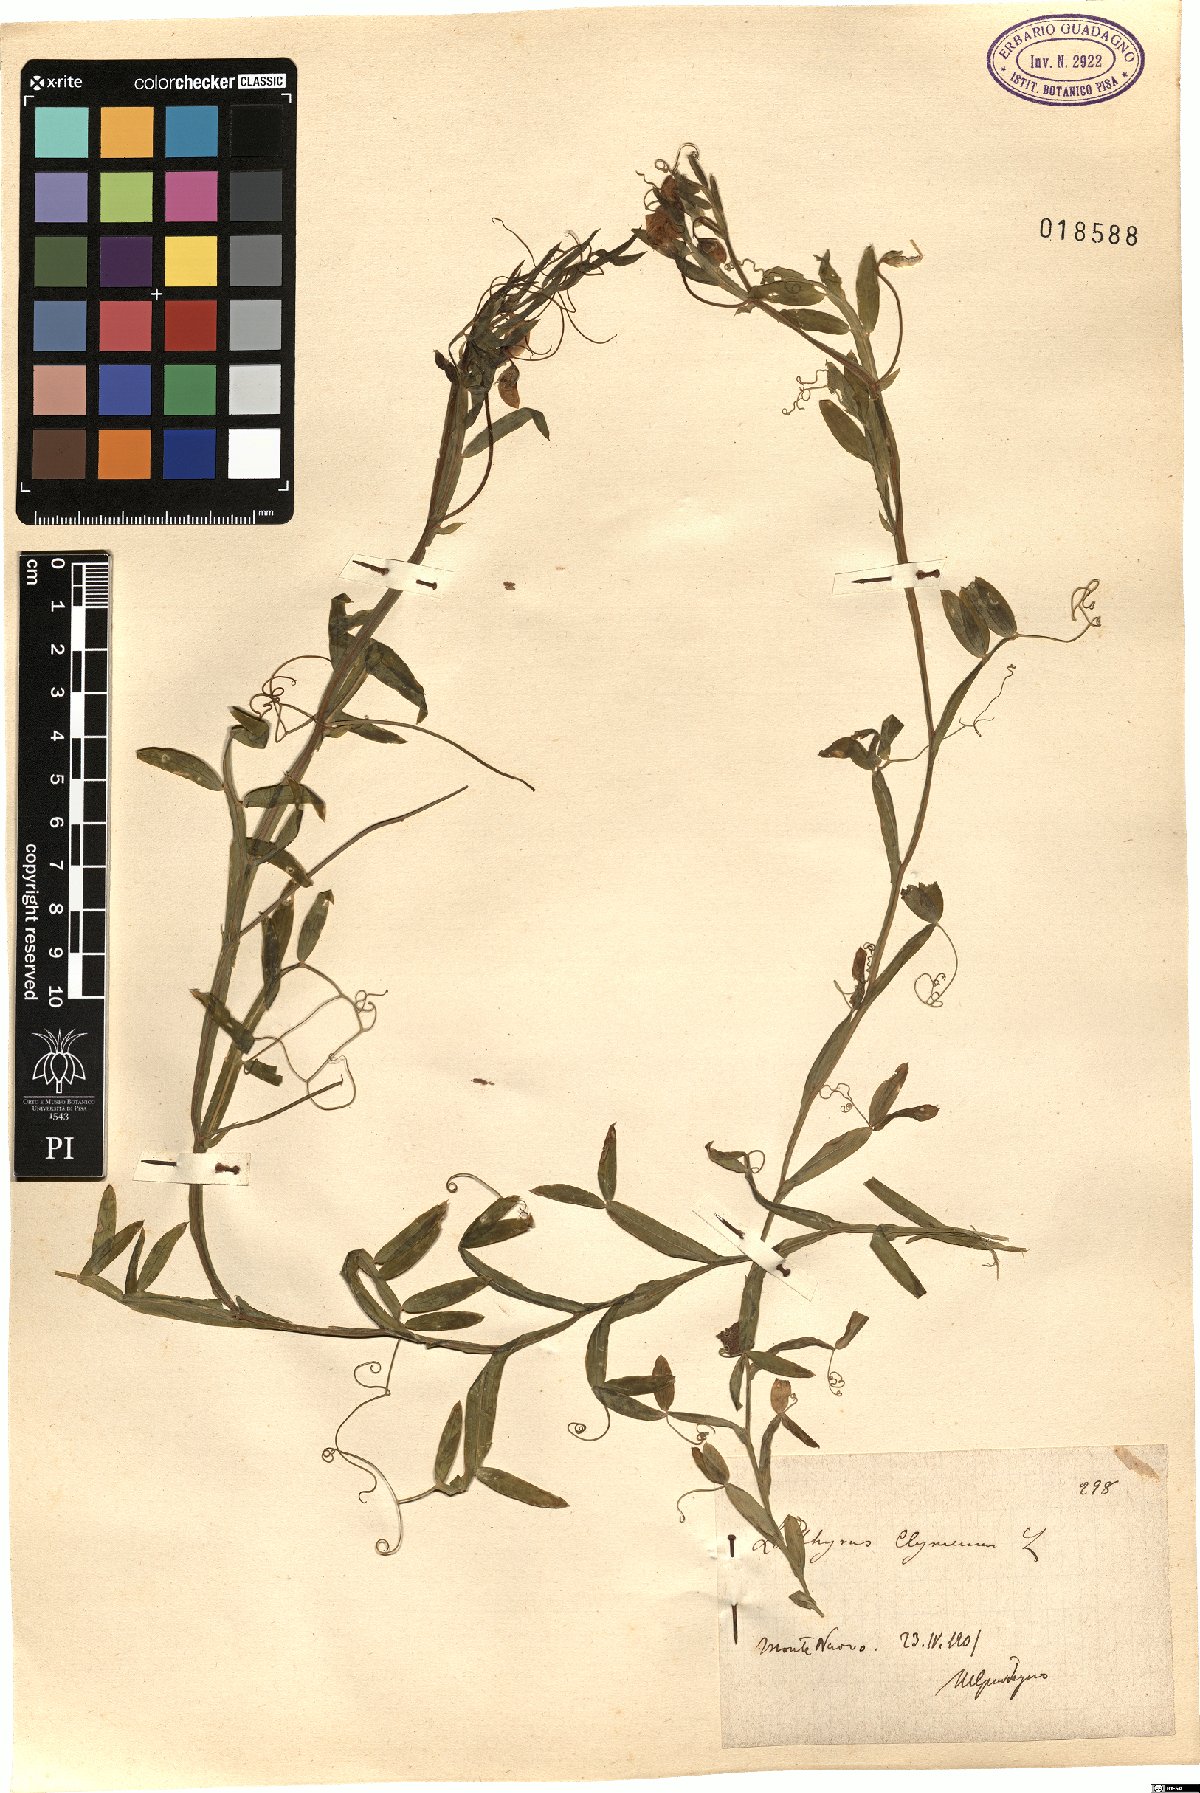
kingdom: Plantae
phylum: Tracheophyta
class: Magnoliopsida
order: Fabales
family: Fabaceae
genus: Lathyrus
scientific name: Lathyrus clymenum
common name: Spanish vetchling
